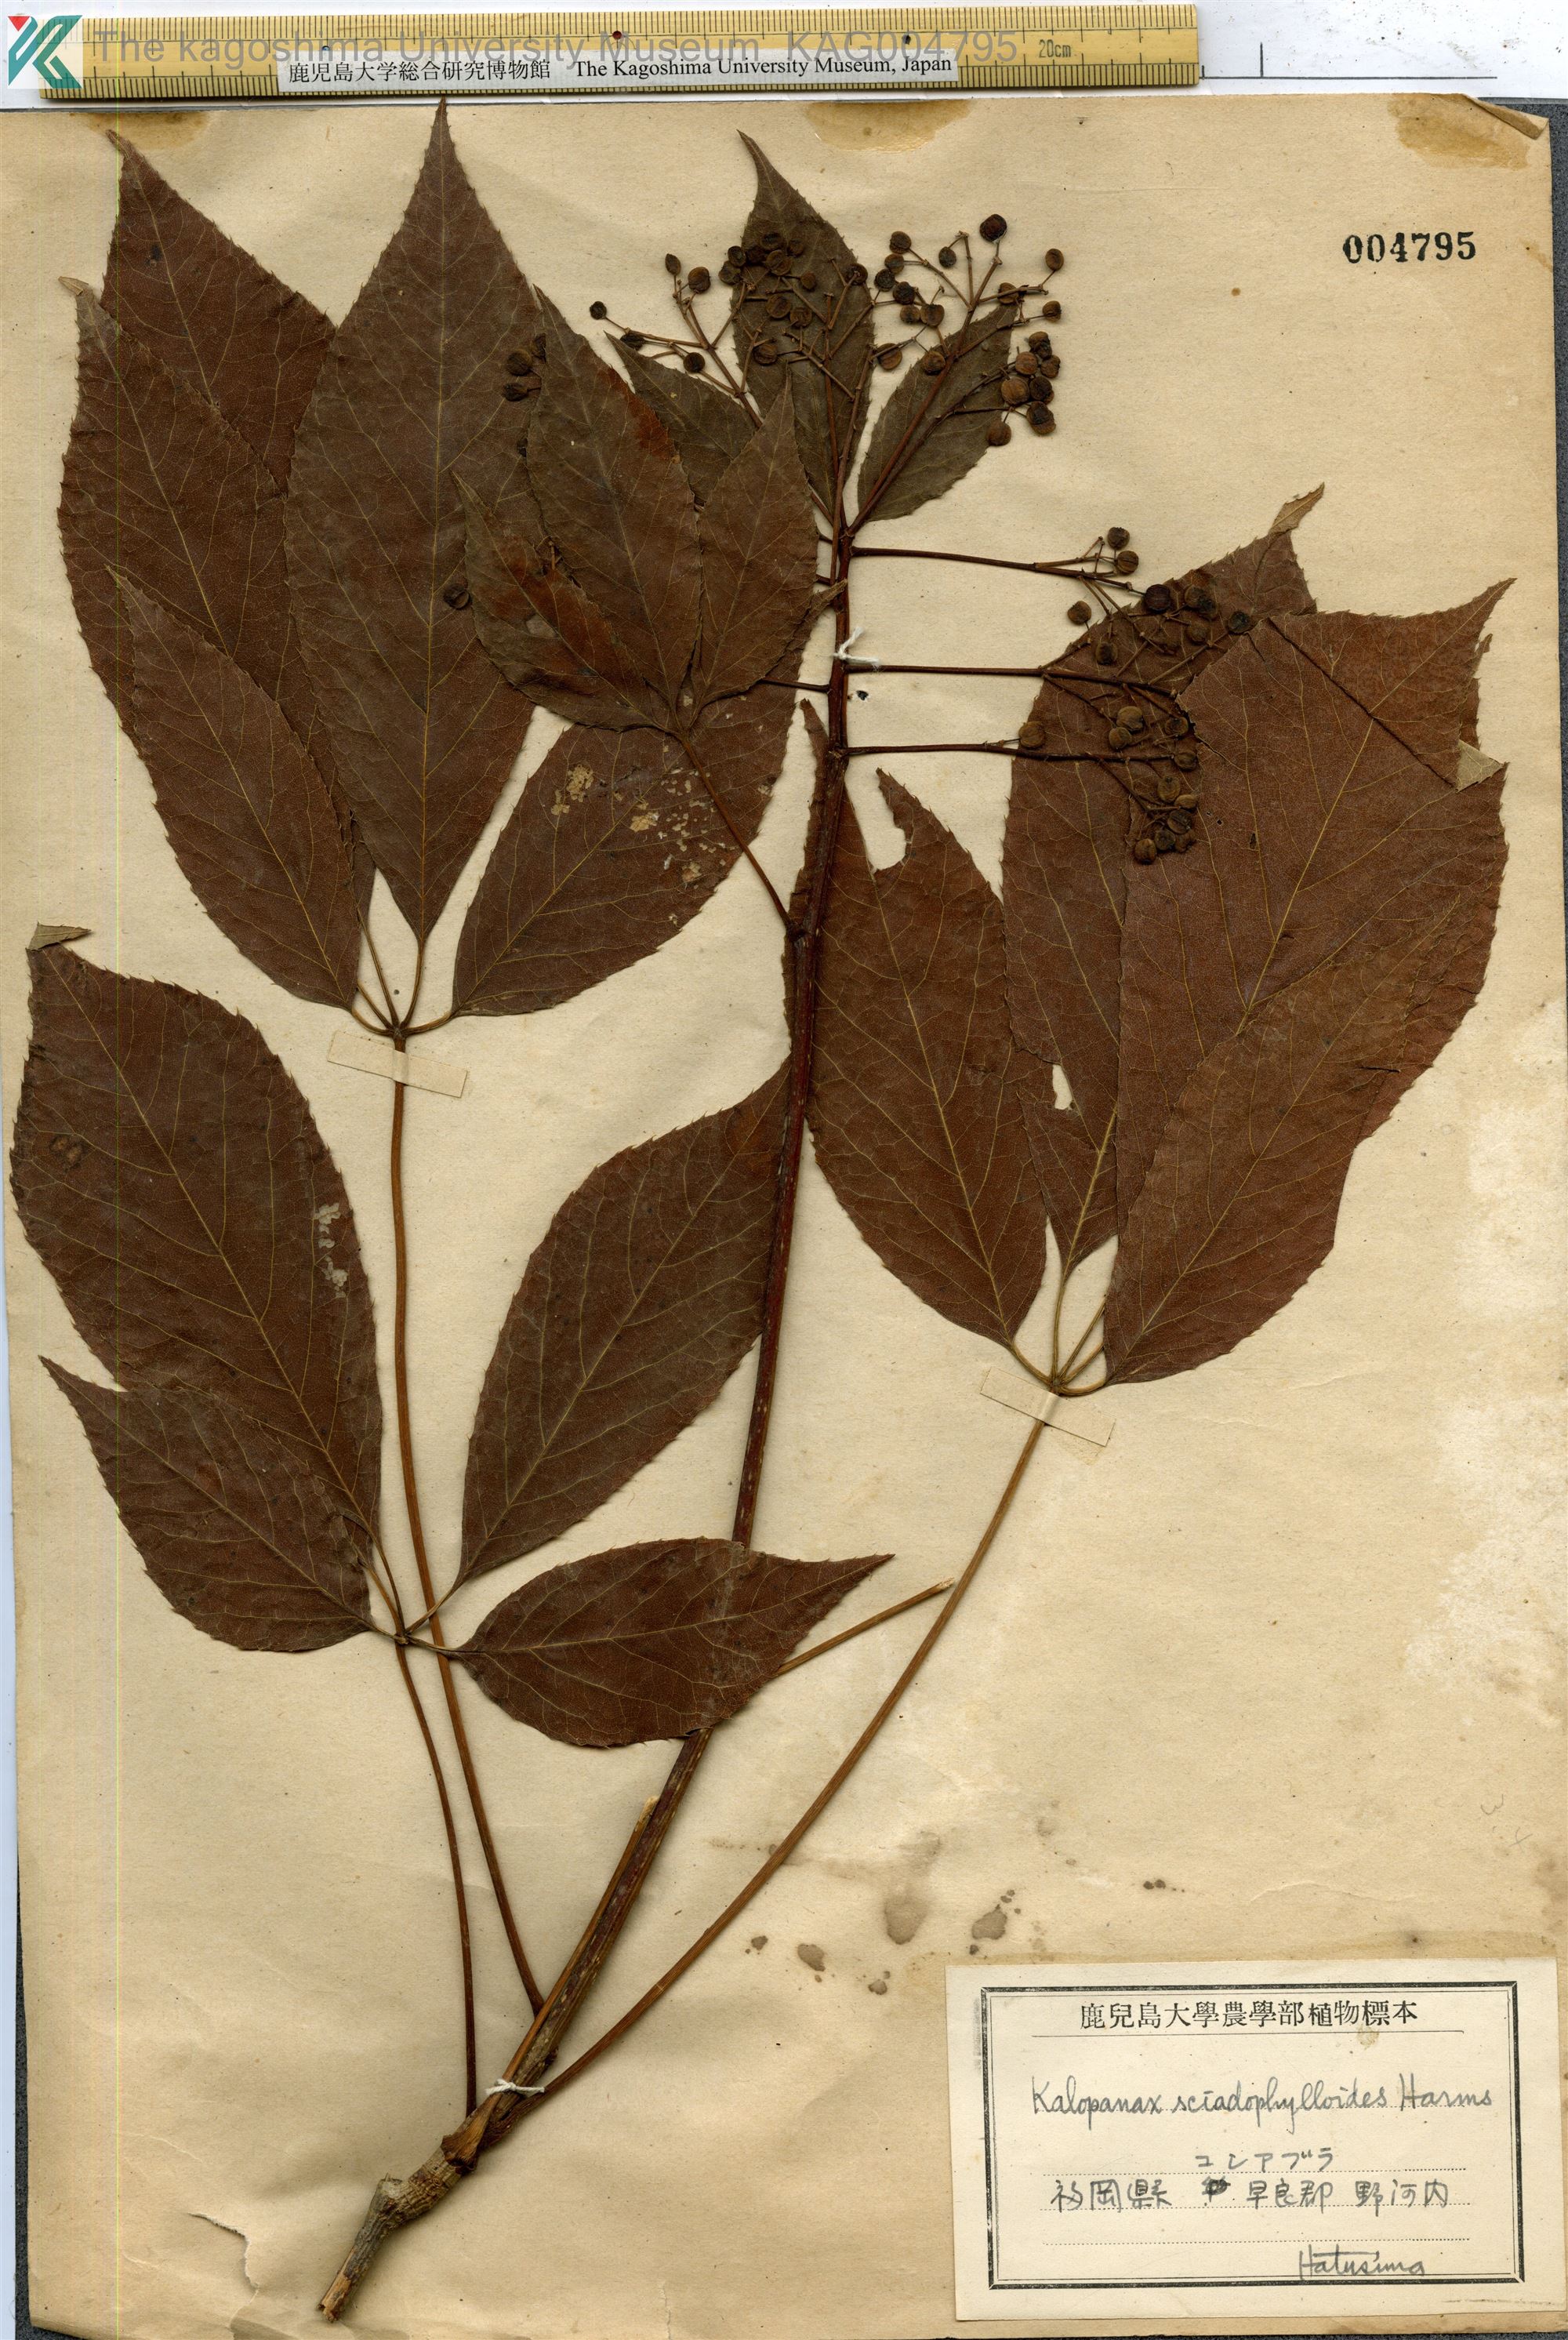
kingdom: Plantae
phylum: Tracheophyta
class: Magnoliopsida
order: Apiales
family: Araliaceae
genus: Chengiopanax
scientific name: Chengiopanax sciadophylloides
